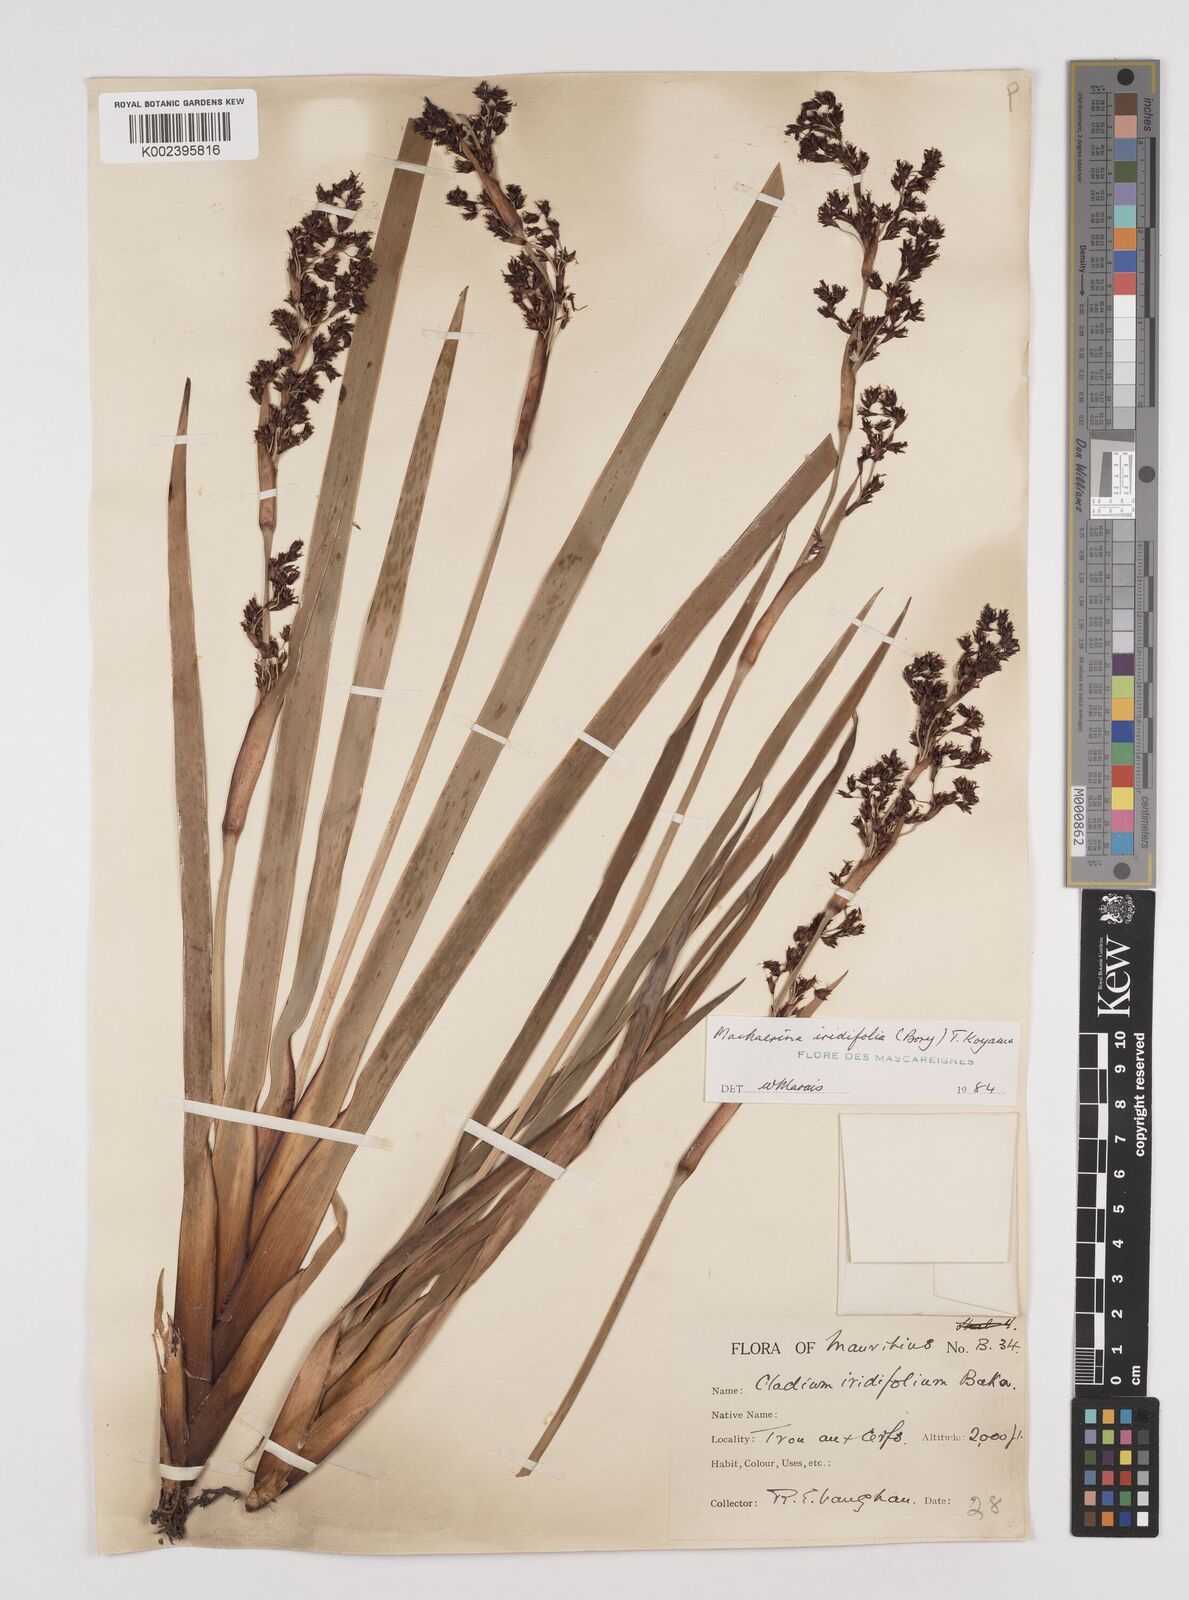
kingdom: Plantae
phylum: Tracheophyta
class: Liliopsida
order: Poales
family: Cyperaceae
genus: Machaerina
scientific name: Machaerina iridifolia
